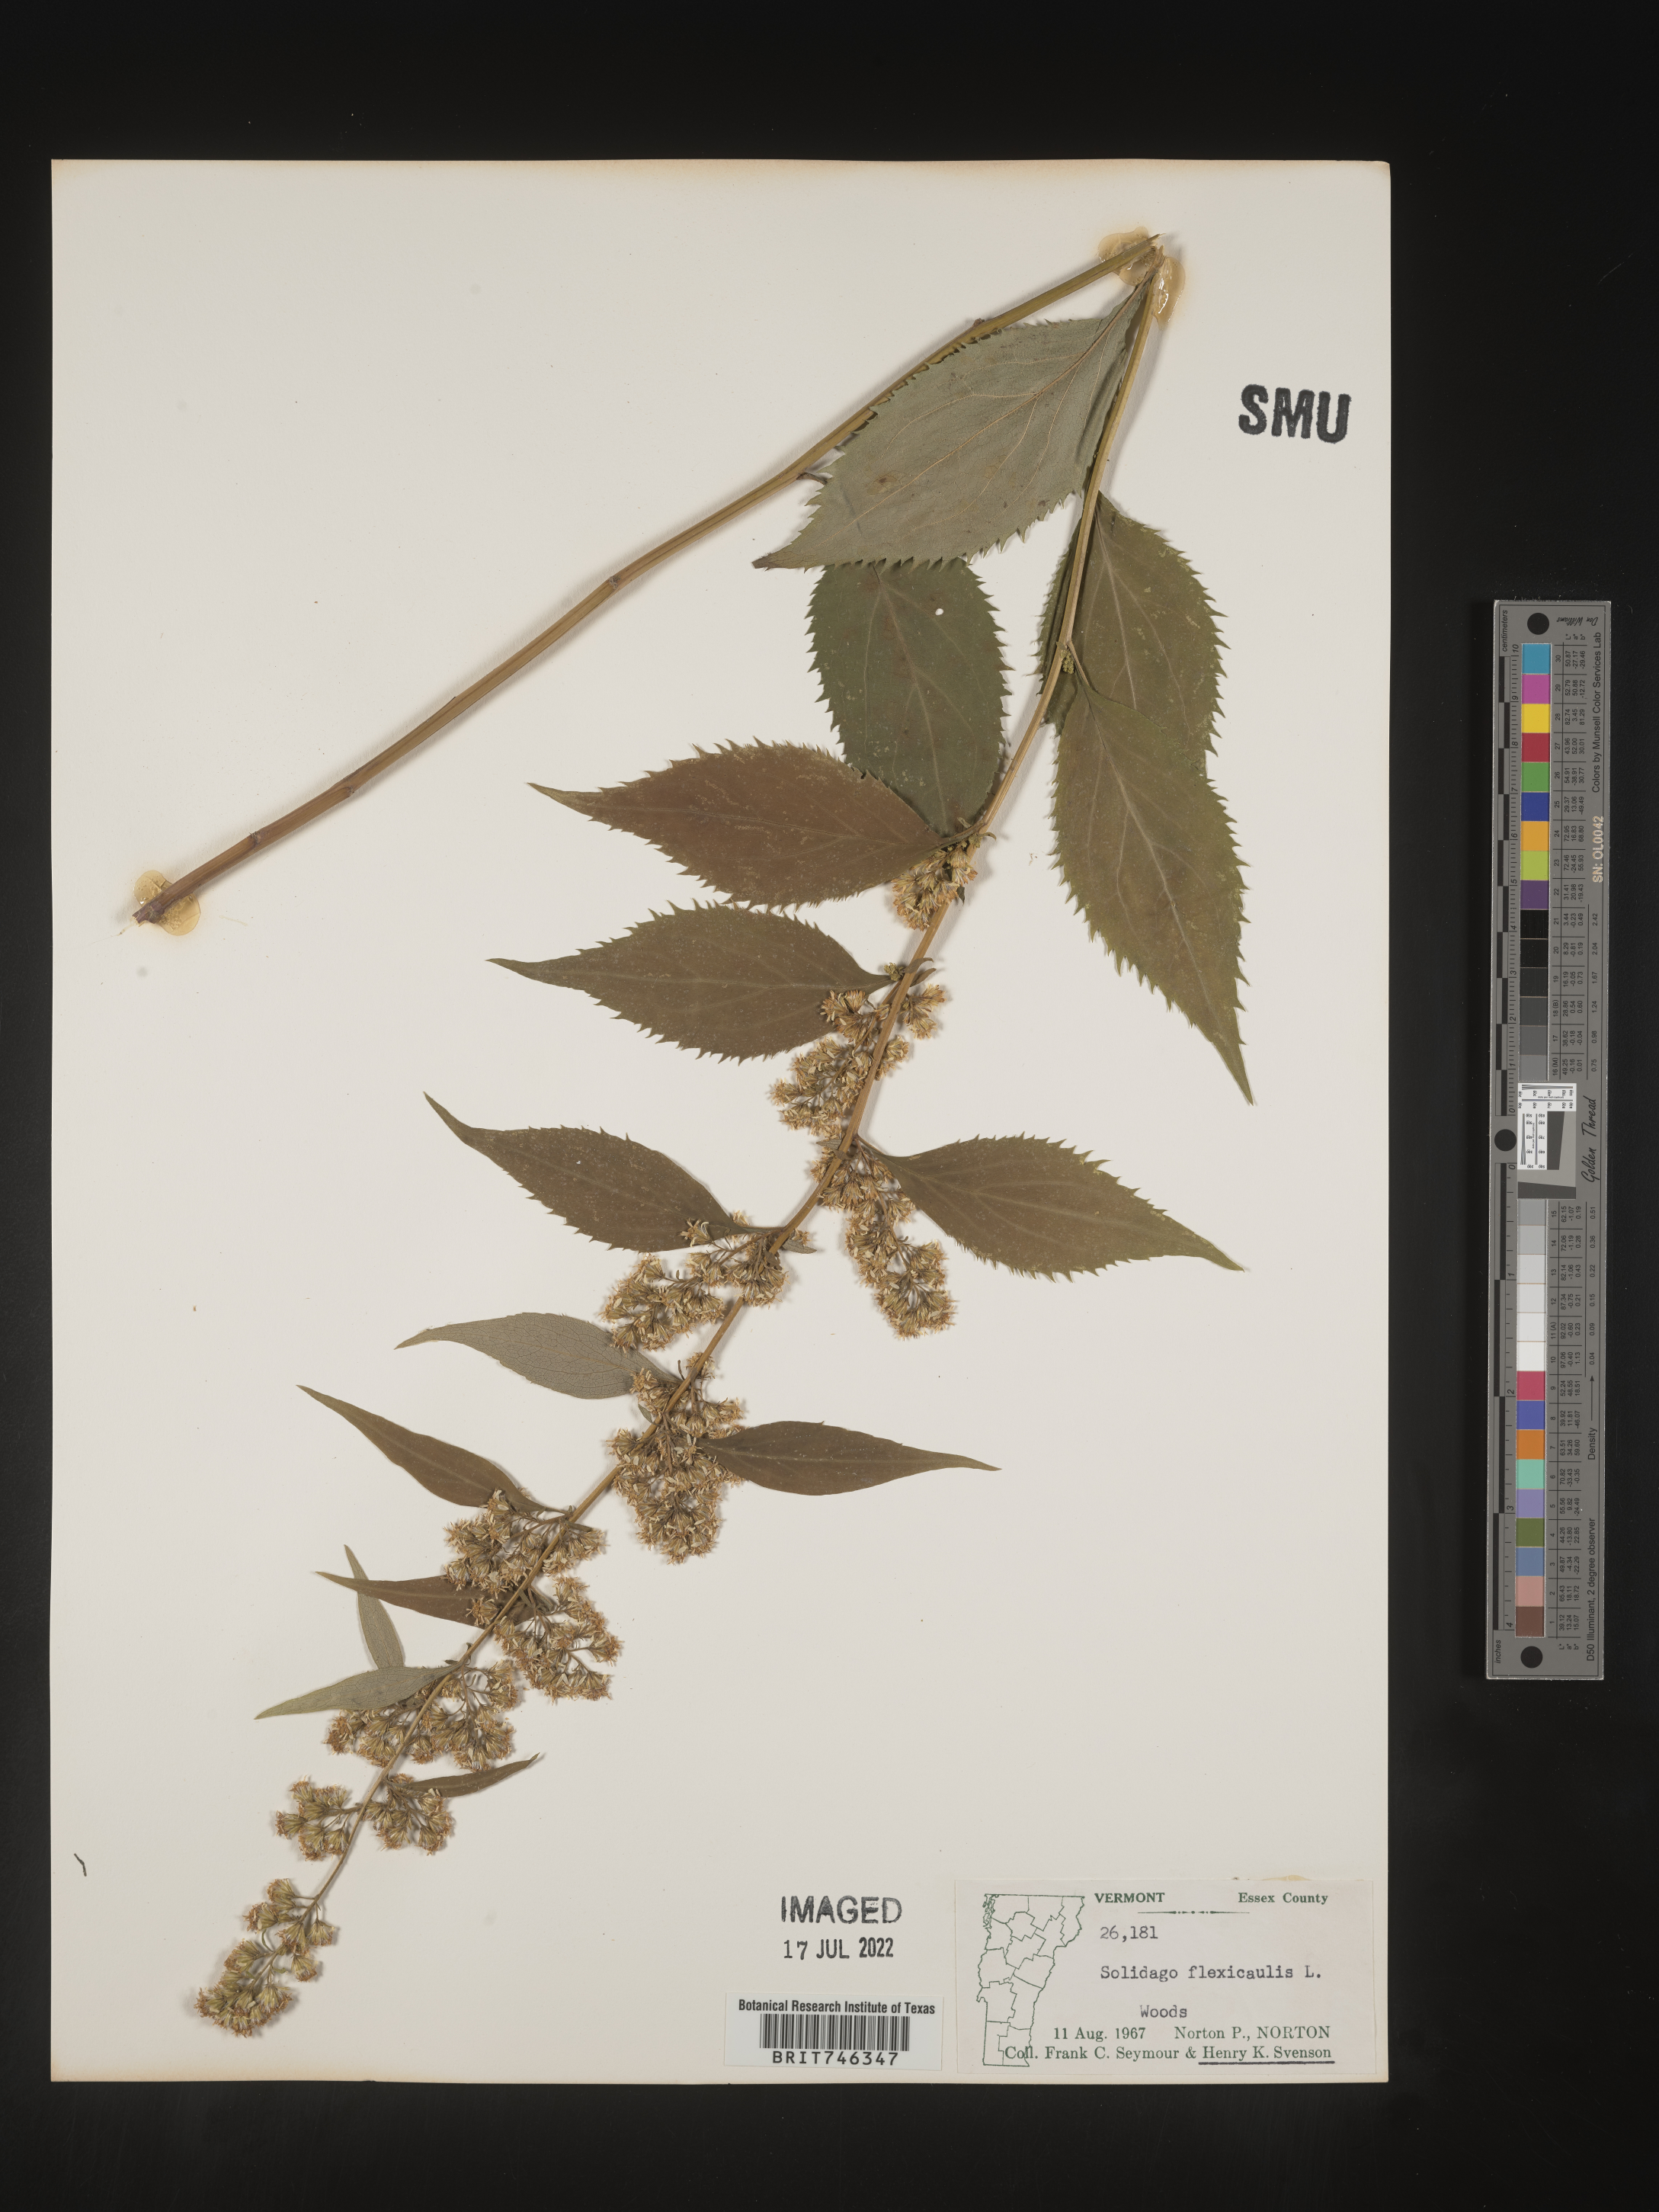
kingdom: Plantae
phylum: Tracheophyta
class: Magnoliopsida
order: Asterales
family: Asteraceae
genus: Solidago
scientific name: Solidago flexicaulis
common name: Zig-zag goldenrod
